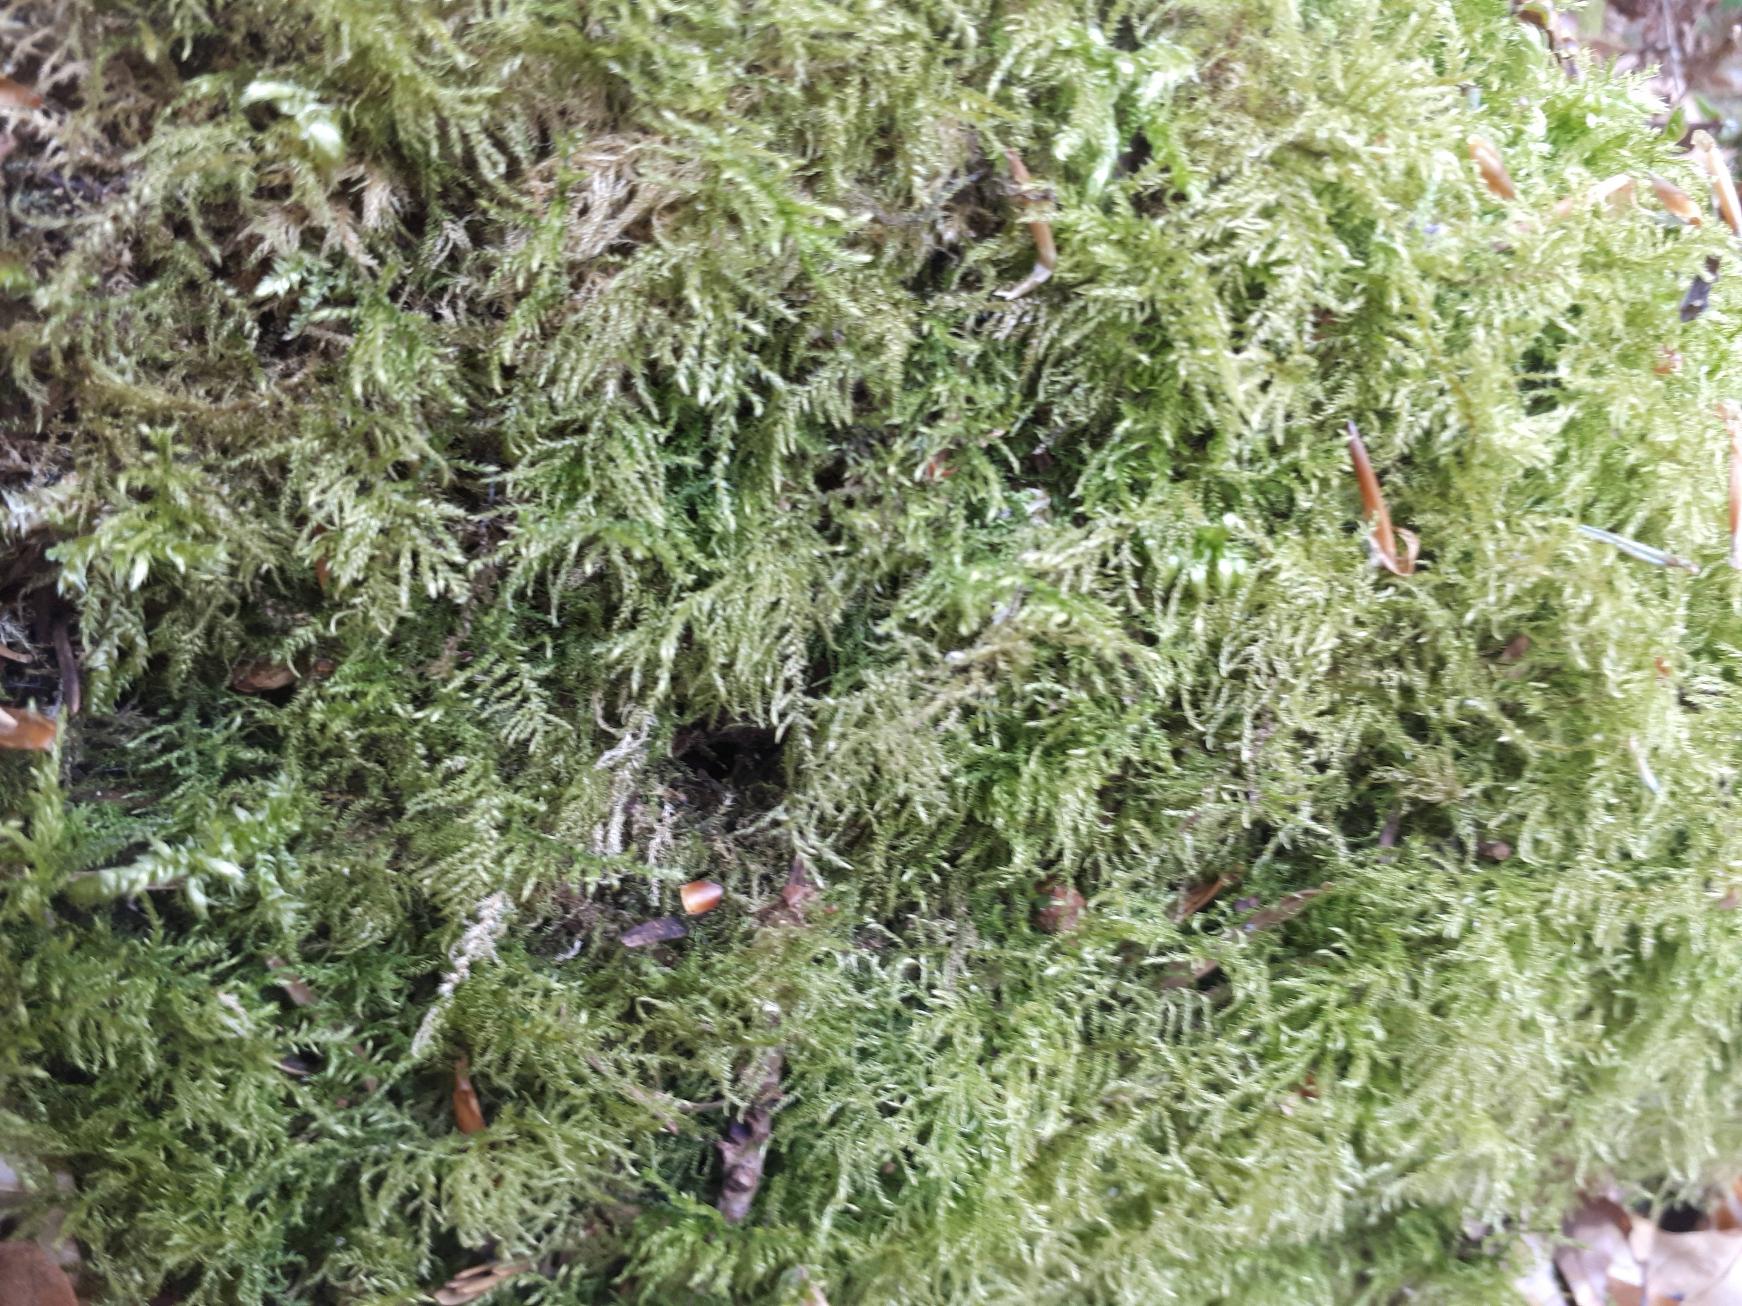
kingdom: Plantae
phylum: Bryophyta
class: Bryopsida
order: Hypnales
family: Brachytheciaceae
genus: Kindbergia
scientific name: Kindbergia praelonga
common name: Forskelligbladet vortetand
